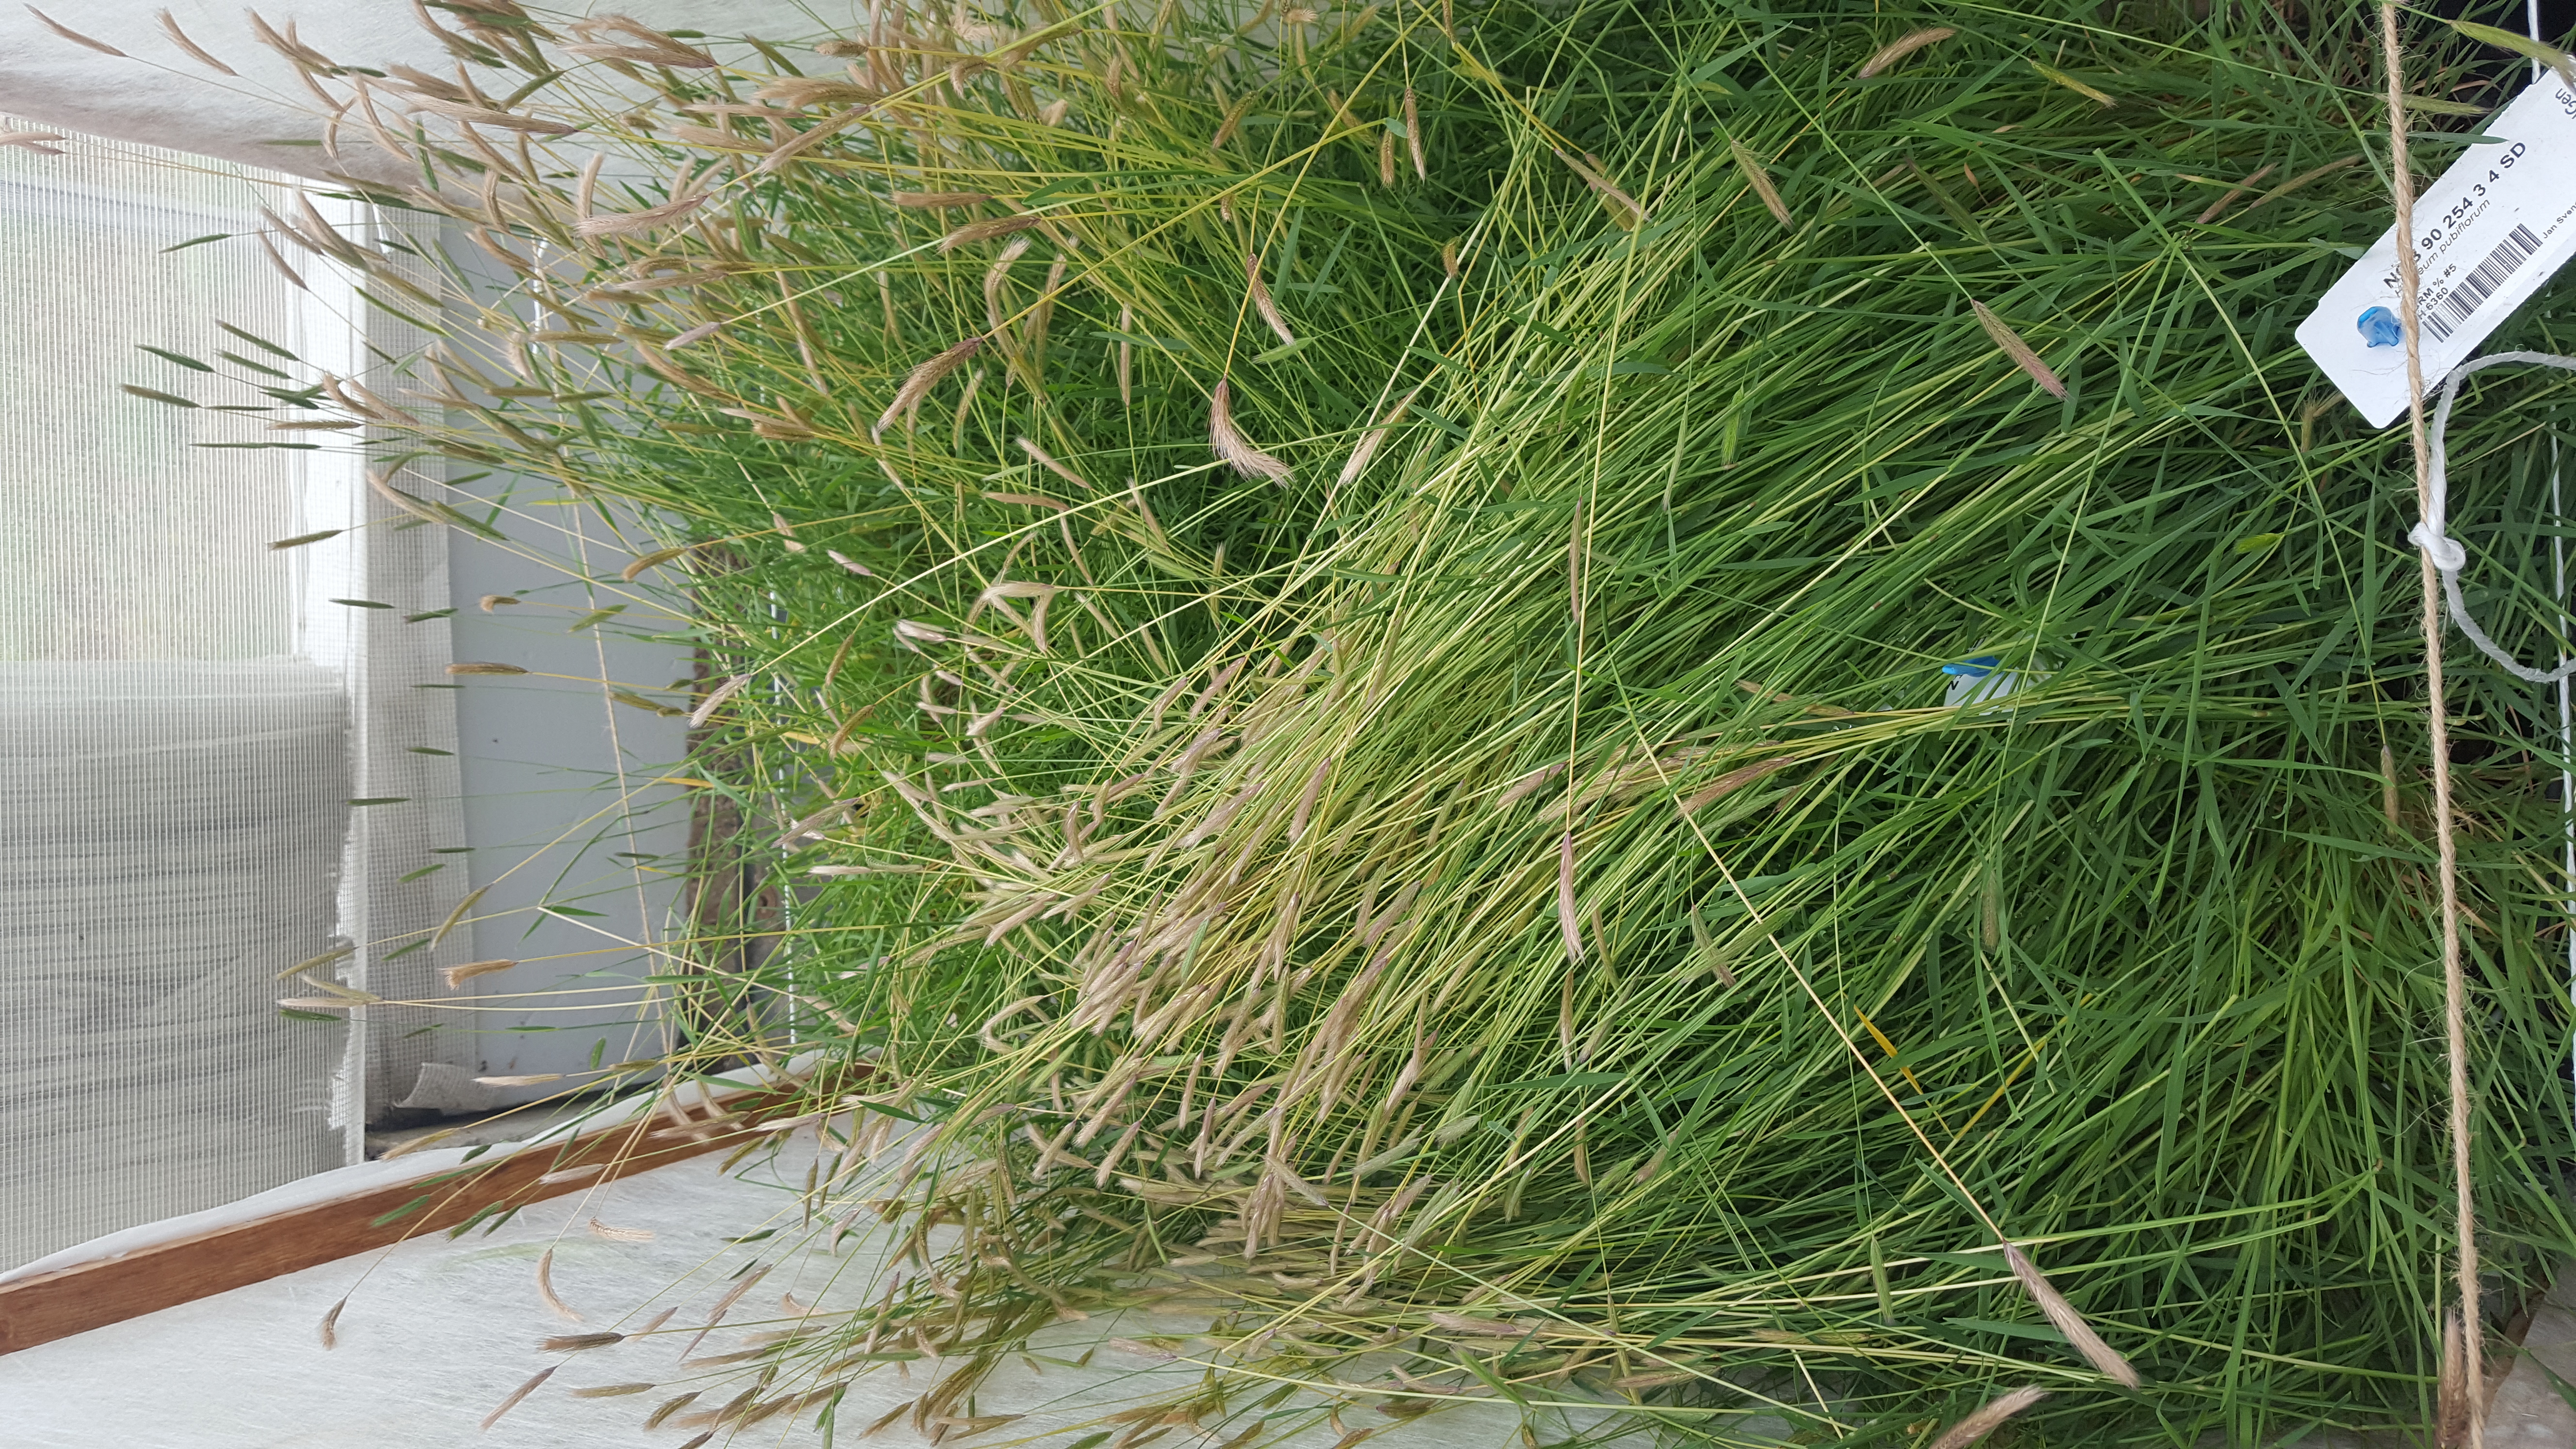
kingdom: Plantae
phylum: Tracheophyta
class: Liliopsida
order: Poales
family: Poaceae
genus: Hordeum
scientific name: Hordeum pubiflorum
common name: Antarctic barley
